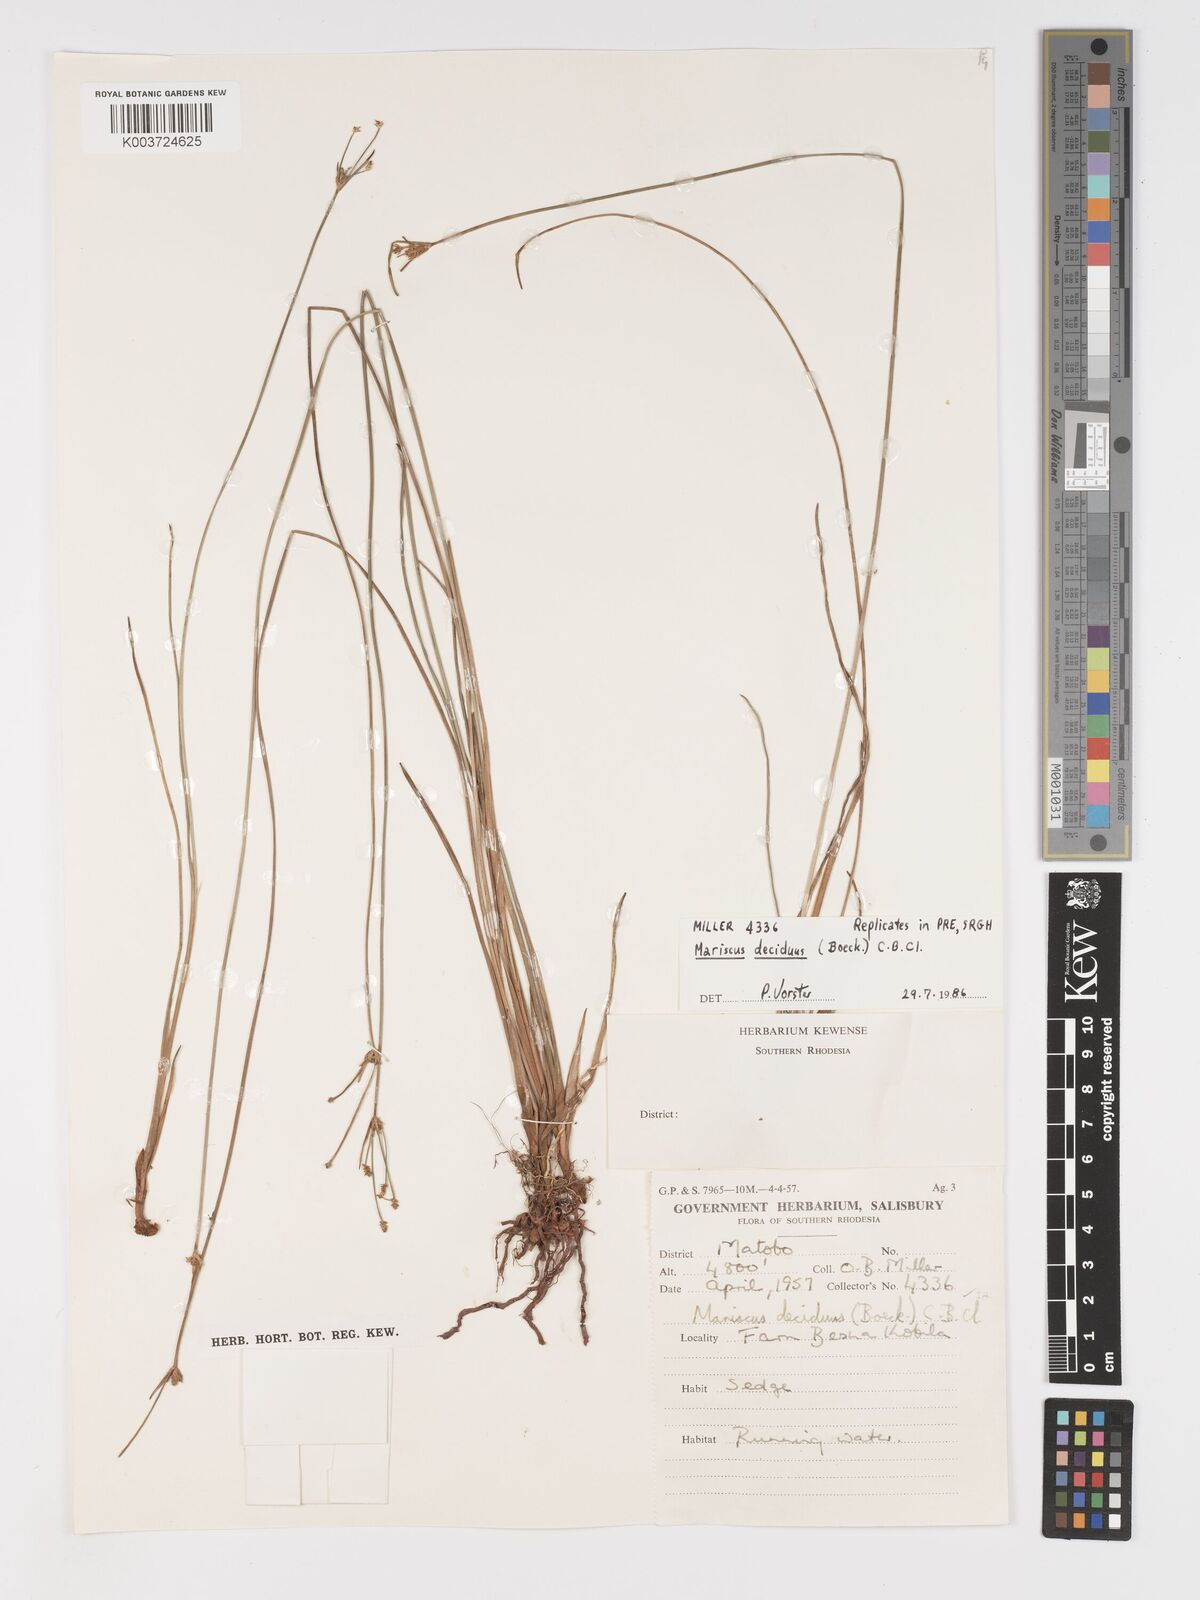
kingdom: Plantae
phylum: Tracheophyta
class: Liliopsida
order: Poales
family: Cyperaceae
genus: Cyperus
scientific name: Cyperus deciduus
